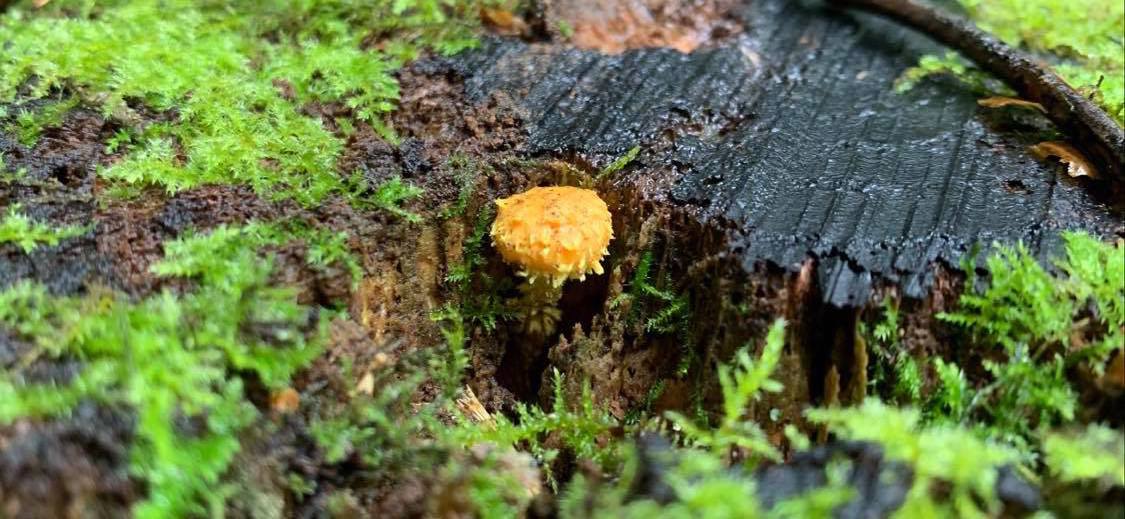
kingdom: Fungi
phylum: Basidiomycota
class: Agaricomycetes
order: Agaricales
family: Strophariaceae
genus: Pholiota
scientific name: Pholiota flammans
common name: flamme-skælhat
